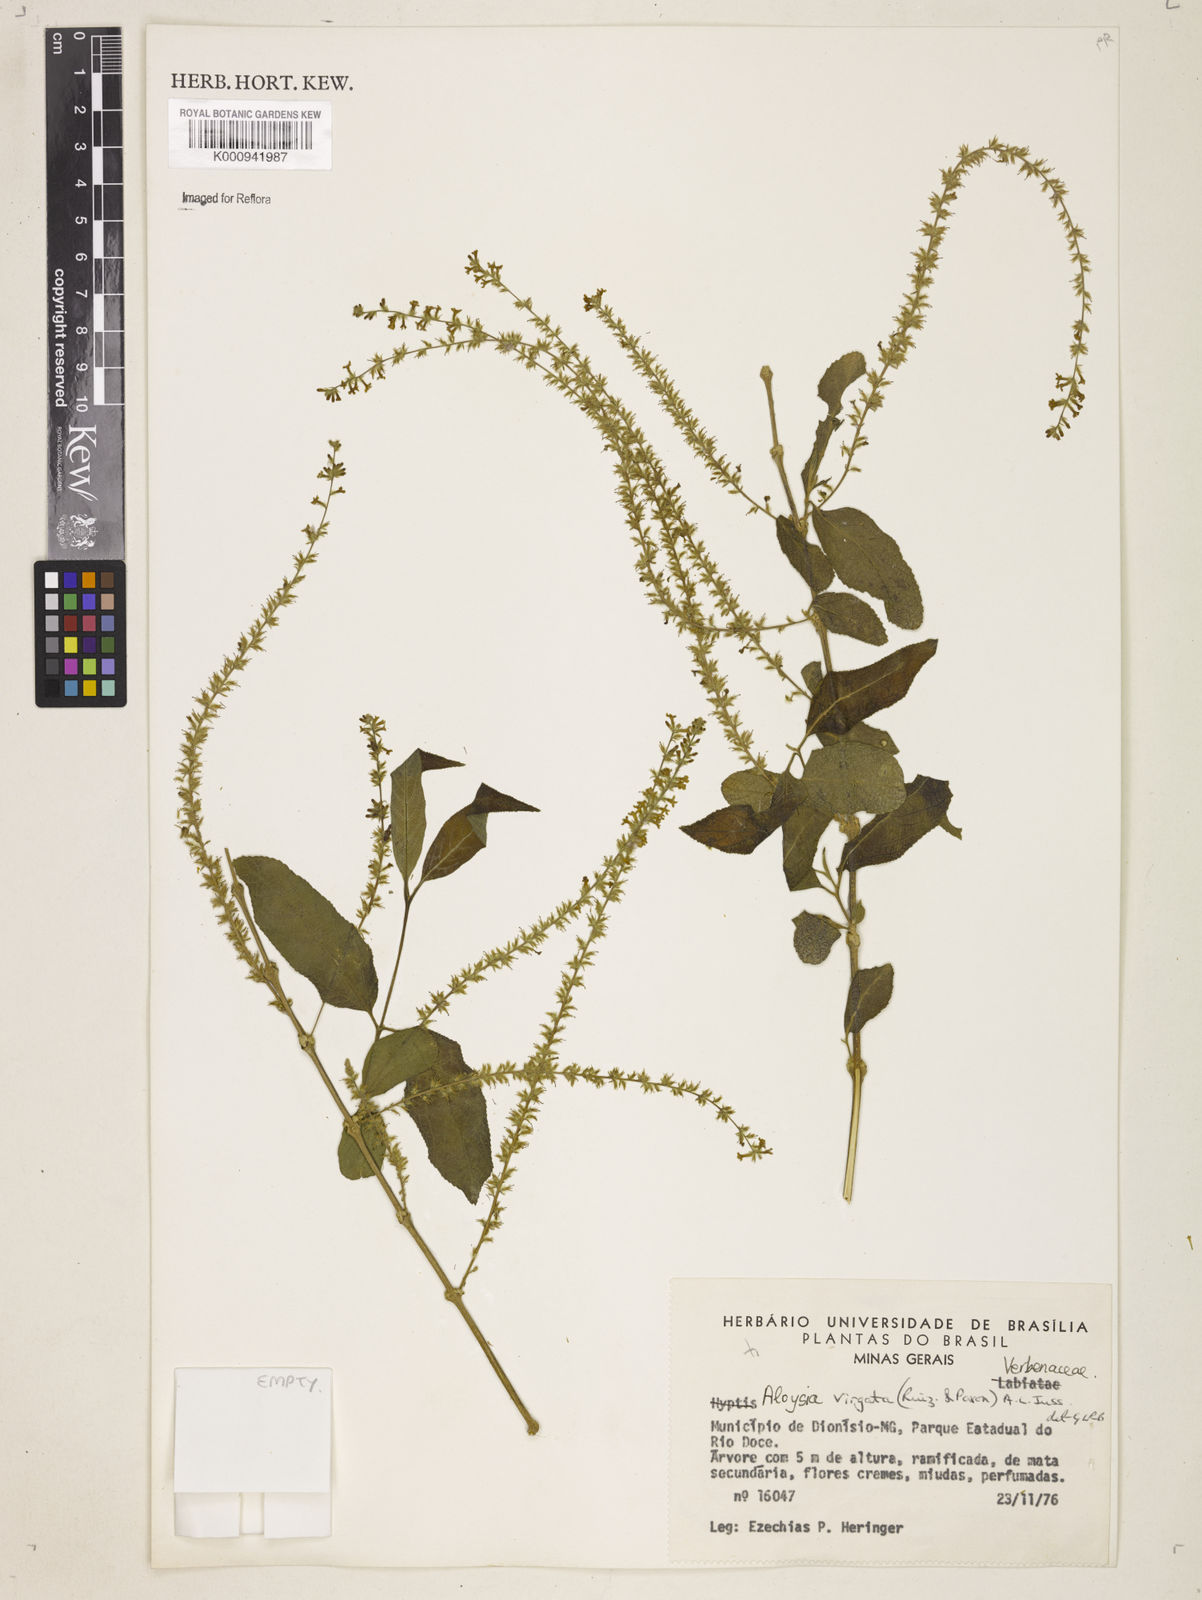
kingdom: Plantae
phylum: Tracheophyta
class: Magnoliopsida
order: Lamiales
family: Verbenaceae
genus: Aloysia
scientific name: Aloysia
